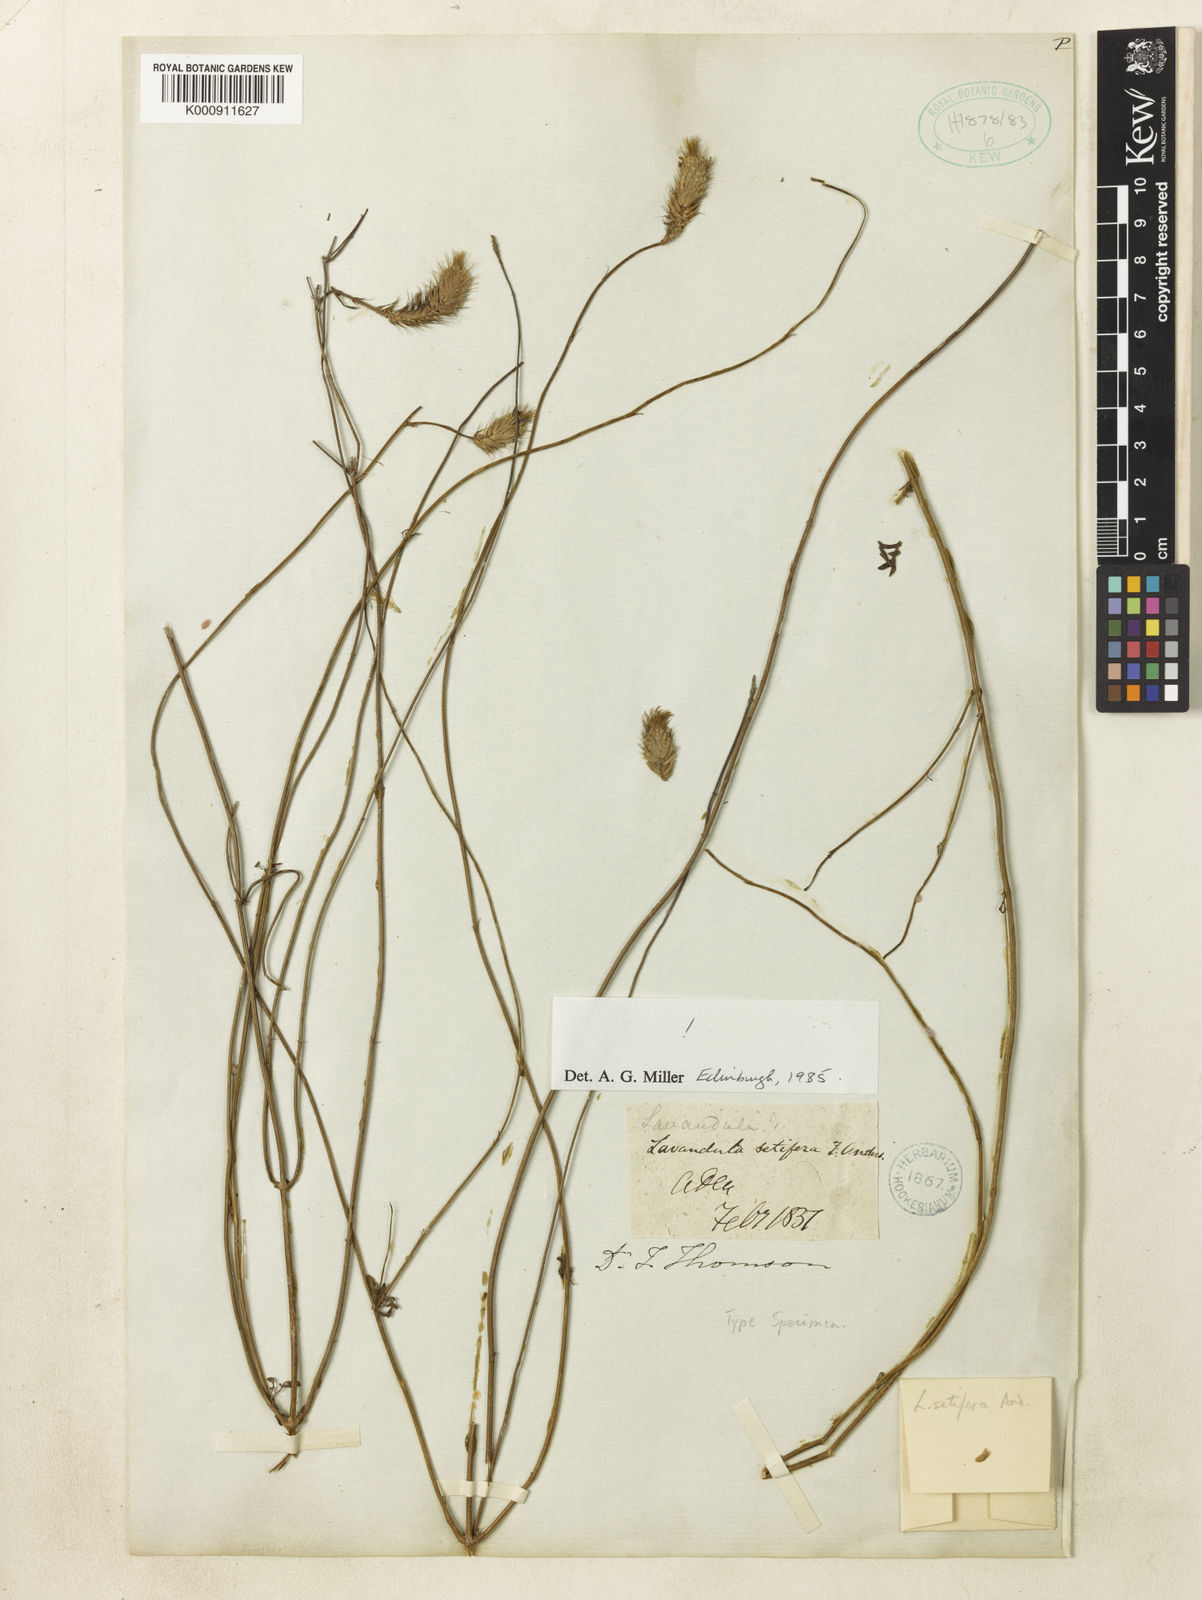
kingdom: Plantae
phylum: Tracheophyta
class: Magnoliopsida
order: Lamiales
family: Lamiaceae
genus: Lavandula
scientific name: Lavandula setifera
